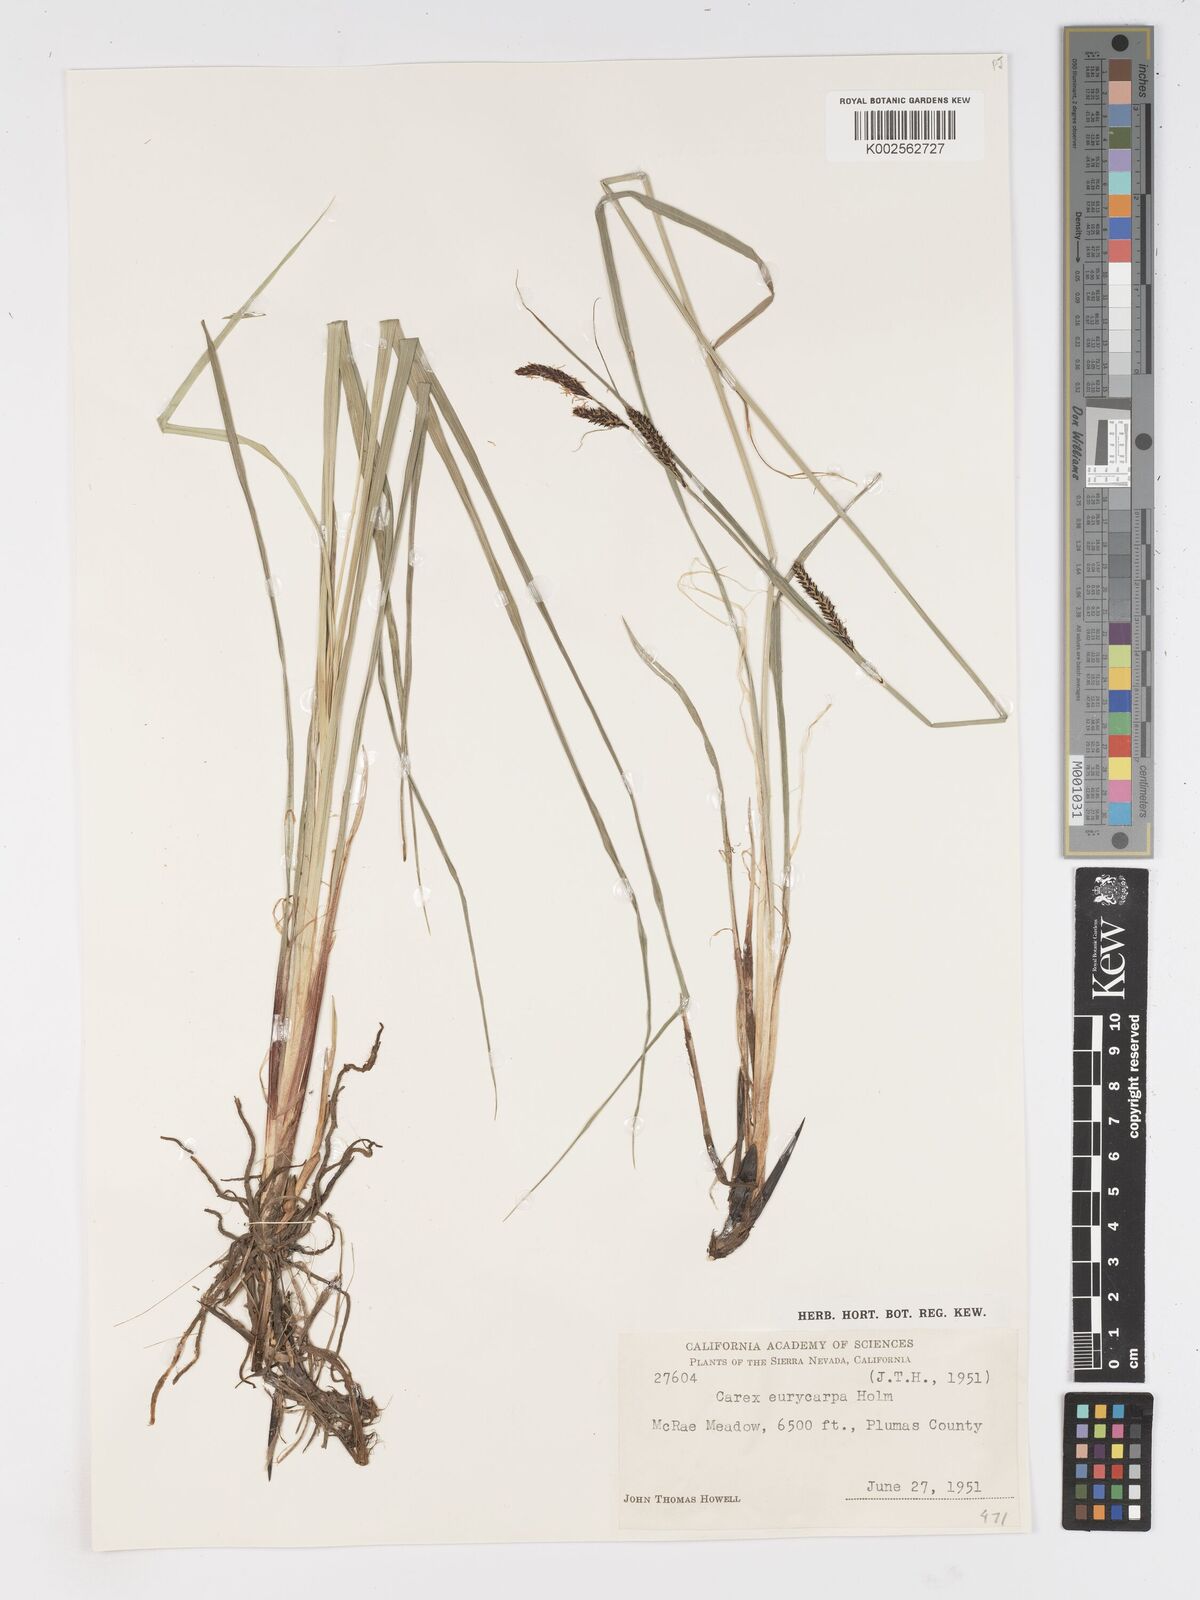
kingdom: Plantae
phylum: Tracheophyta
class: Liliopsida
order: Poales
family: Cyperaceae
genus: Carex
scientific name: Carex angustata
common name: Widefruit sedge
